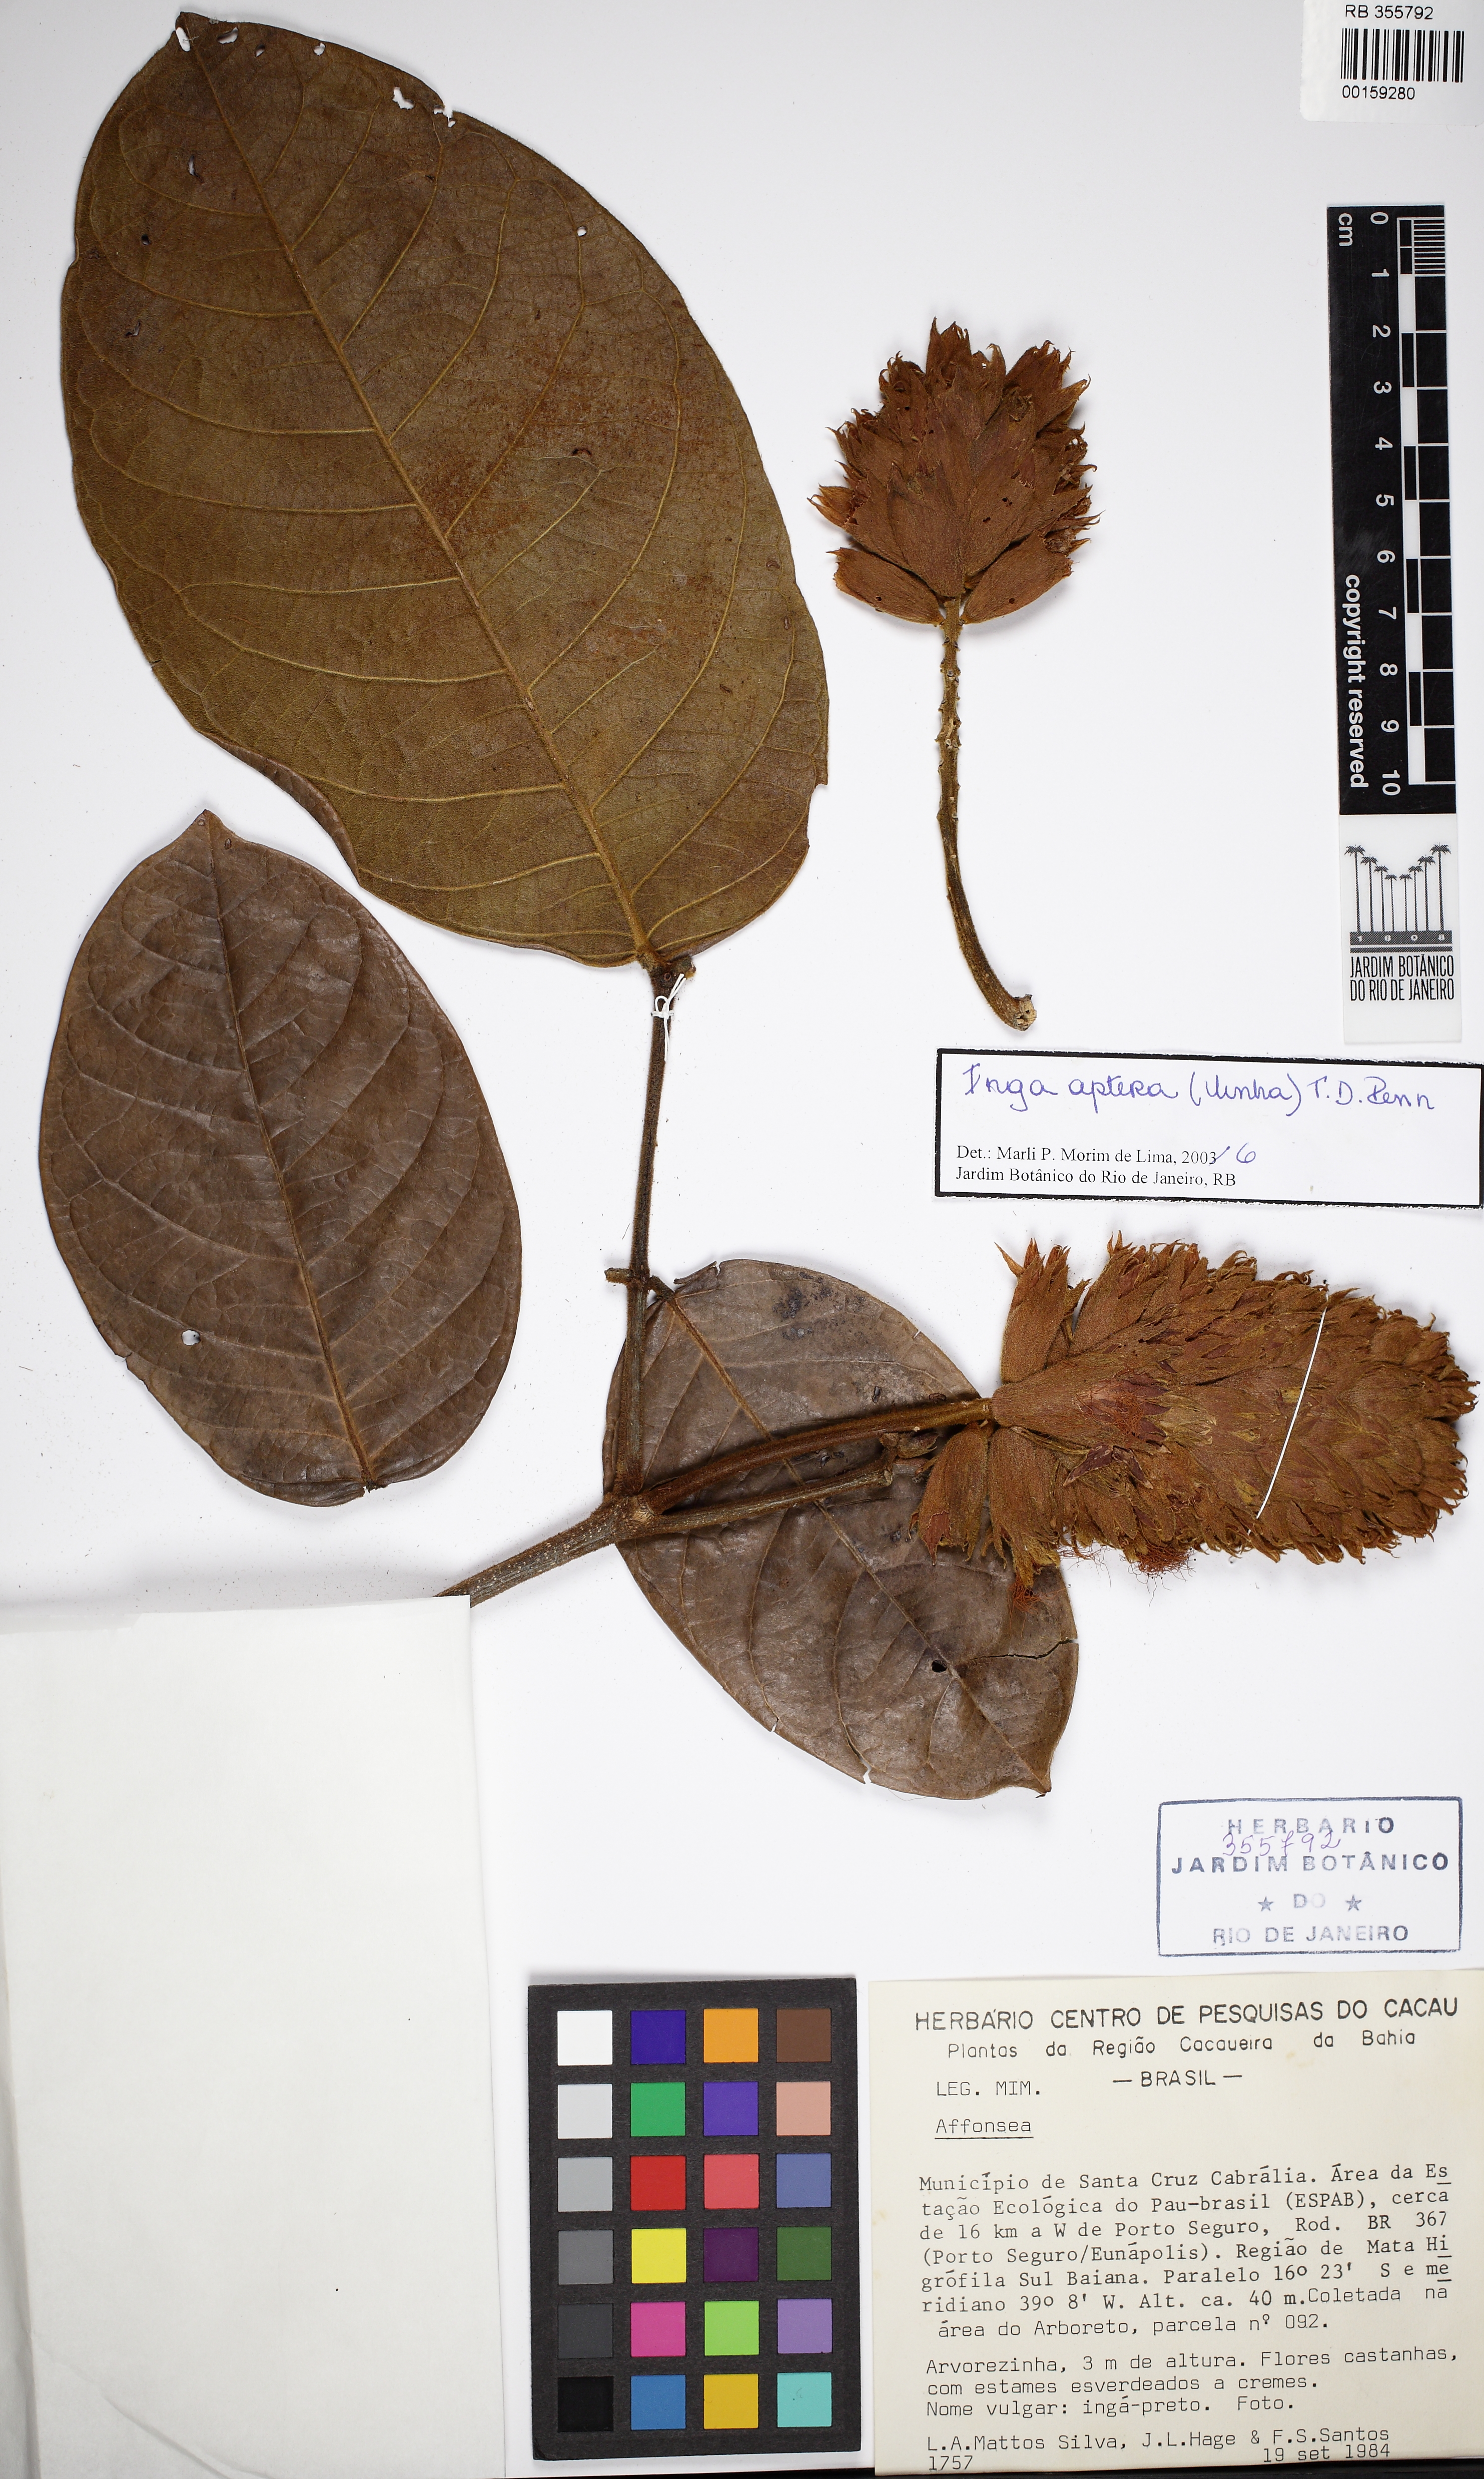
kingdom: Plantae
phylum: Tracheophyta
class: Magnoliopsida
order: Fabales
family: Fabaceae
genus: Inga
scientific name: Inga aptera
